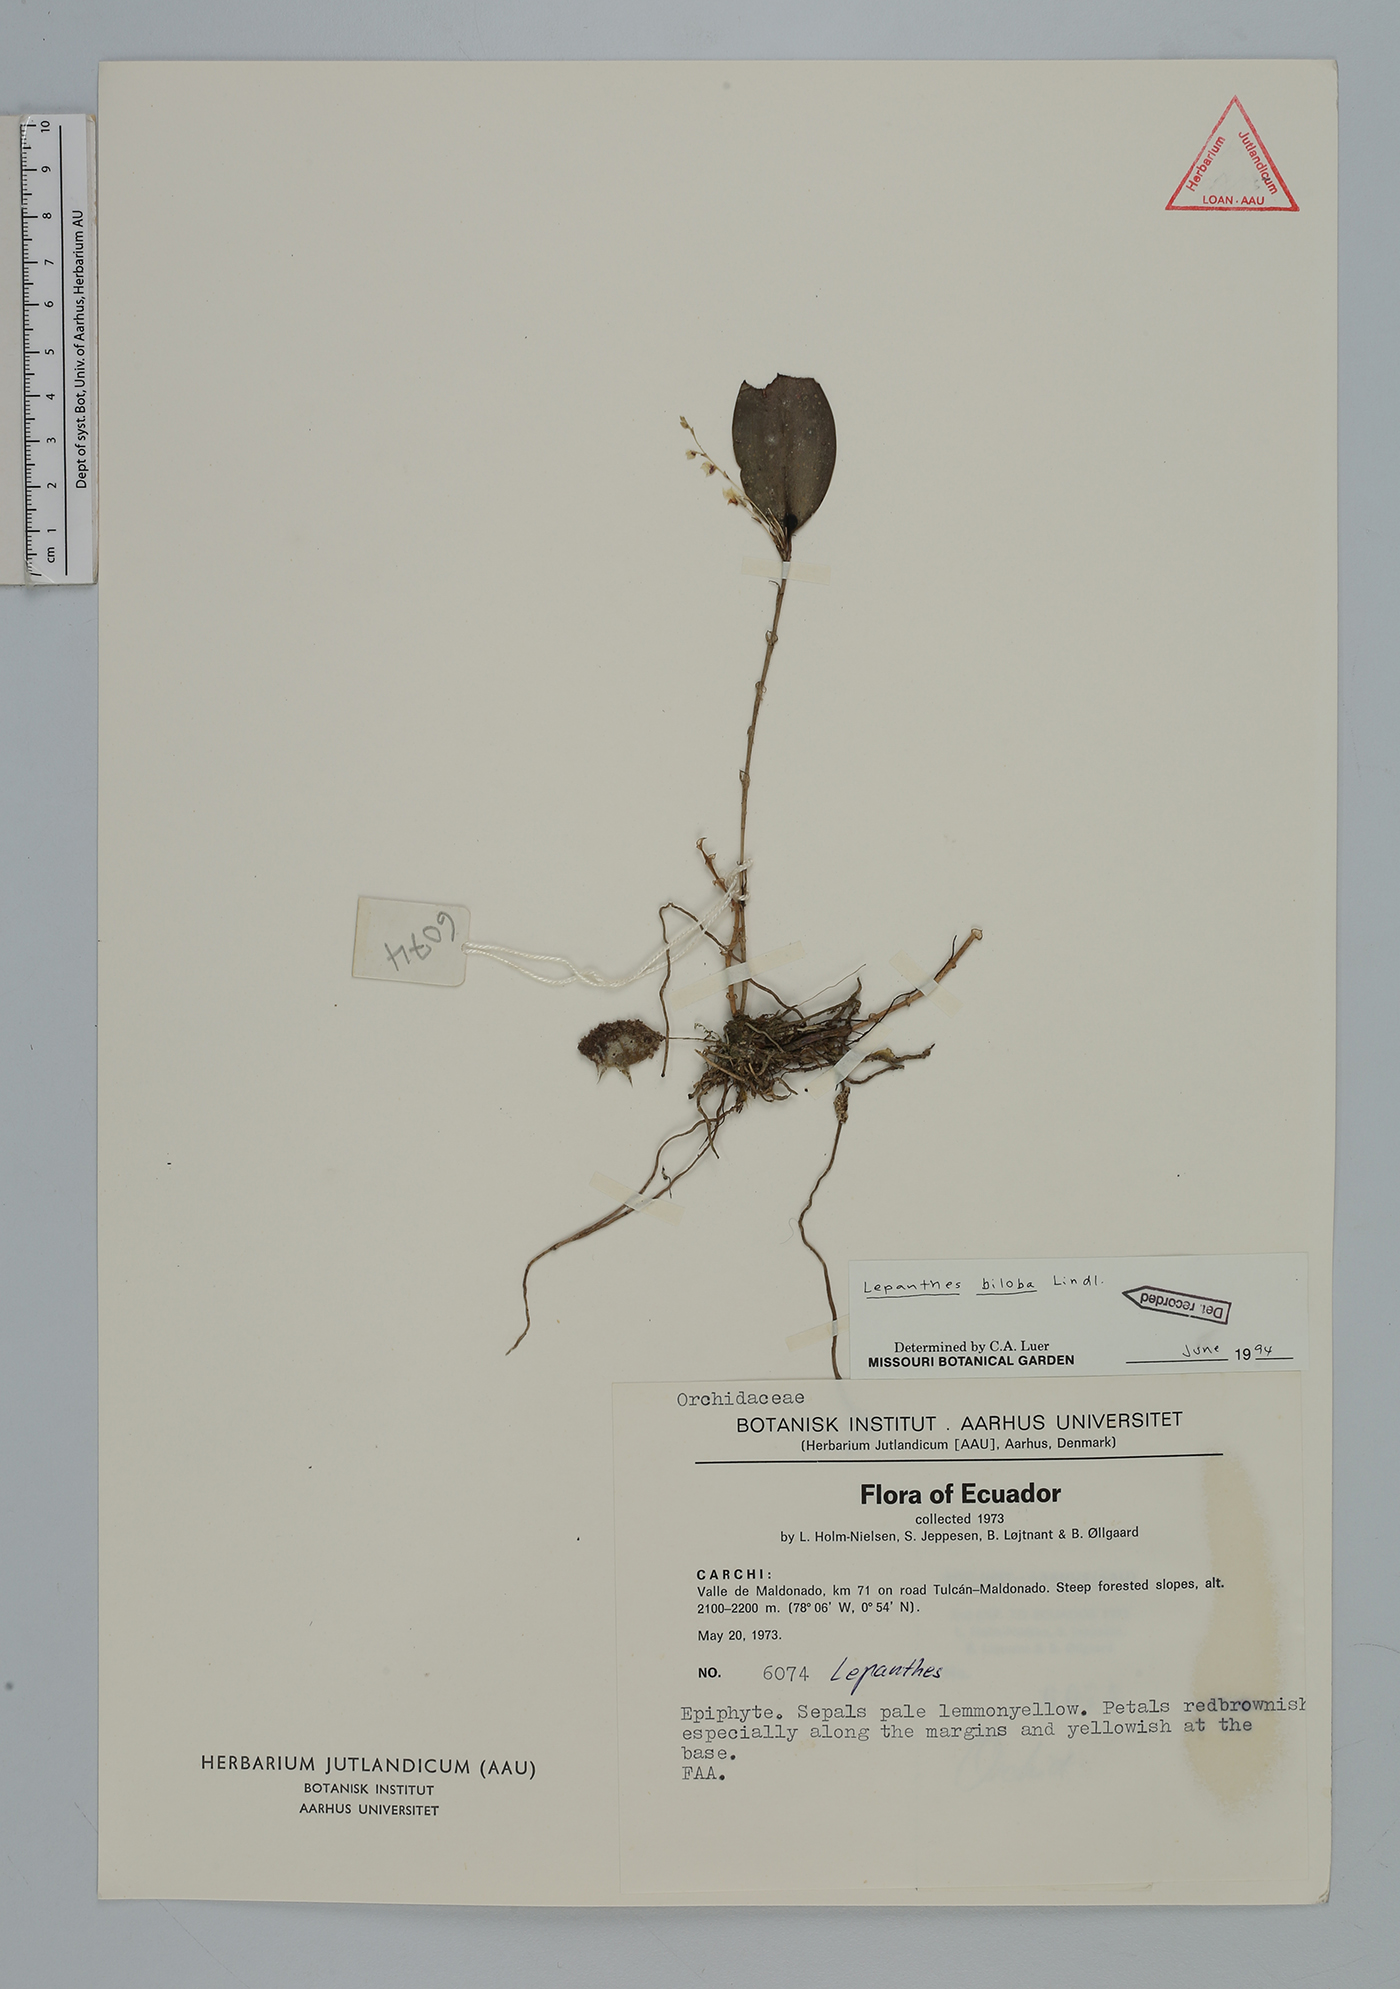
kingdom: Plantae
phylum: Tracheophyta
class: Liliopsida
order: Asparagales
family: Orchidaceae
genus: Lepanthes
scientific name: Lepanthes biloba
